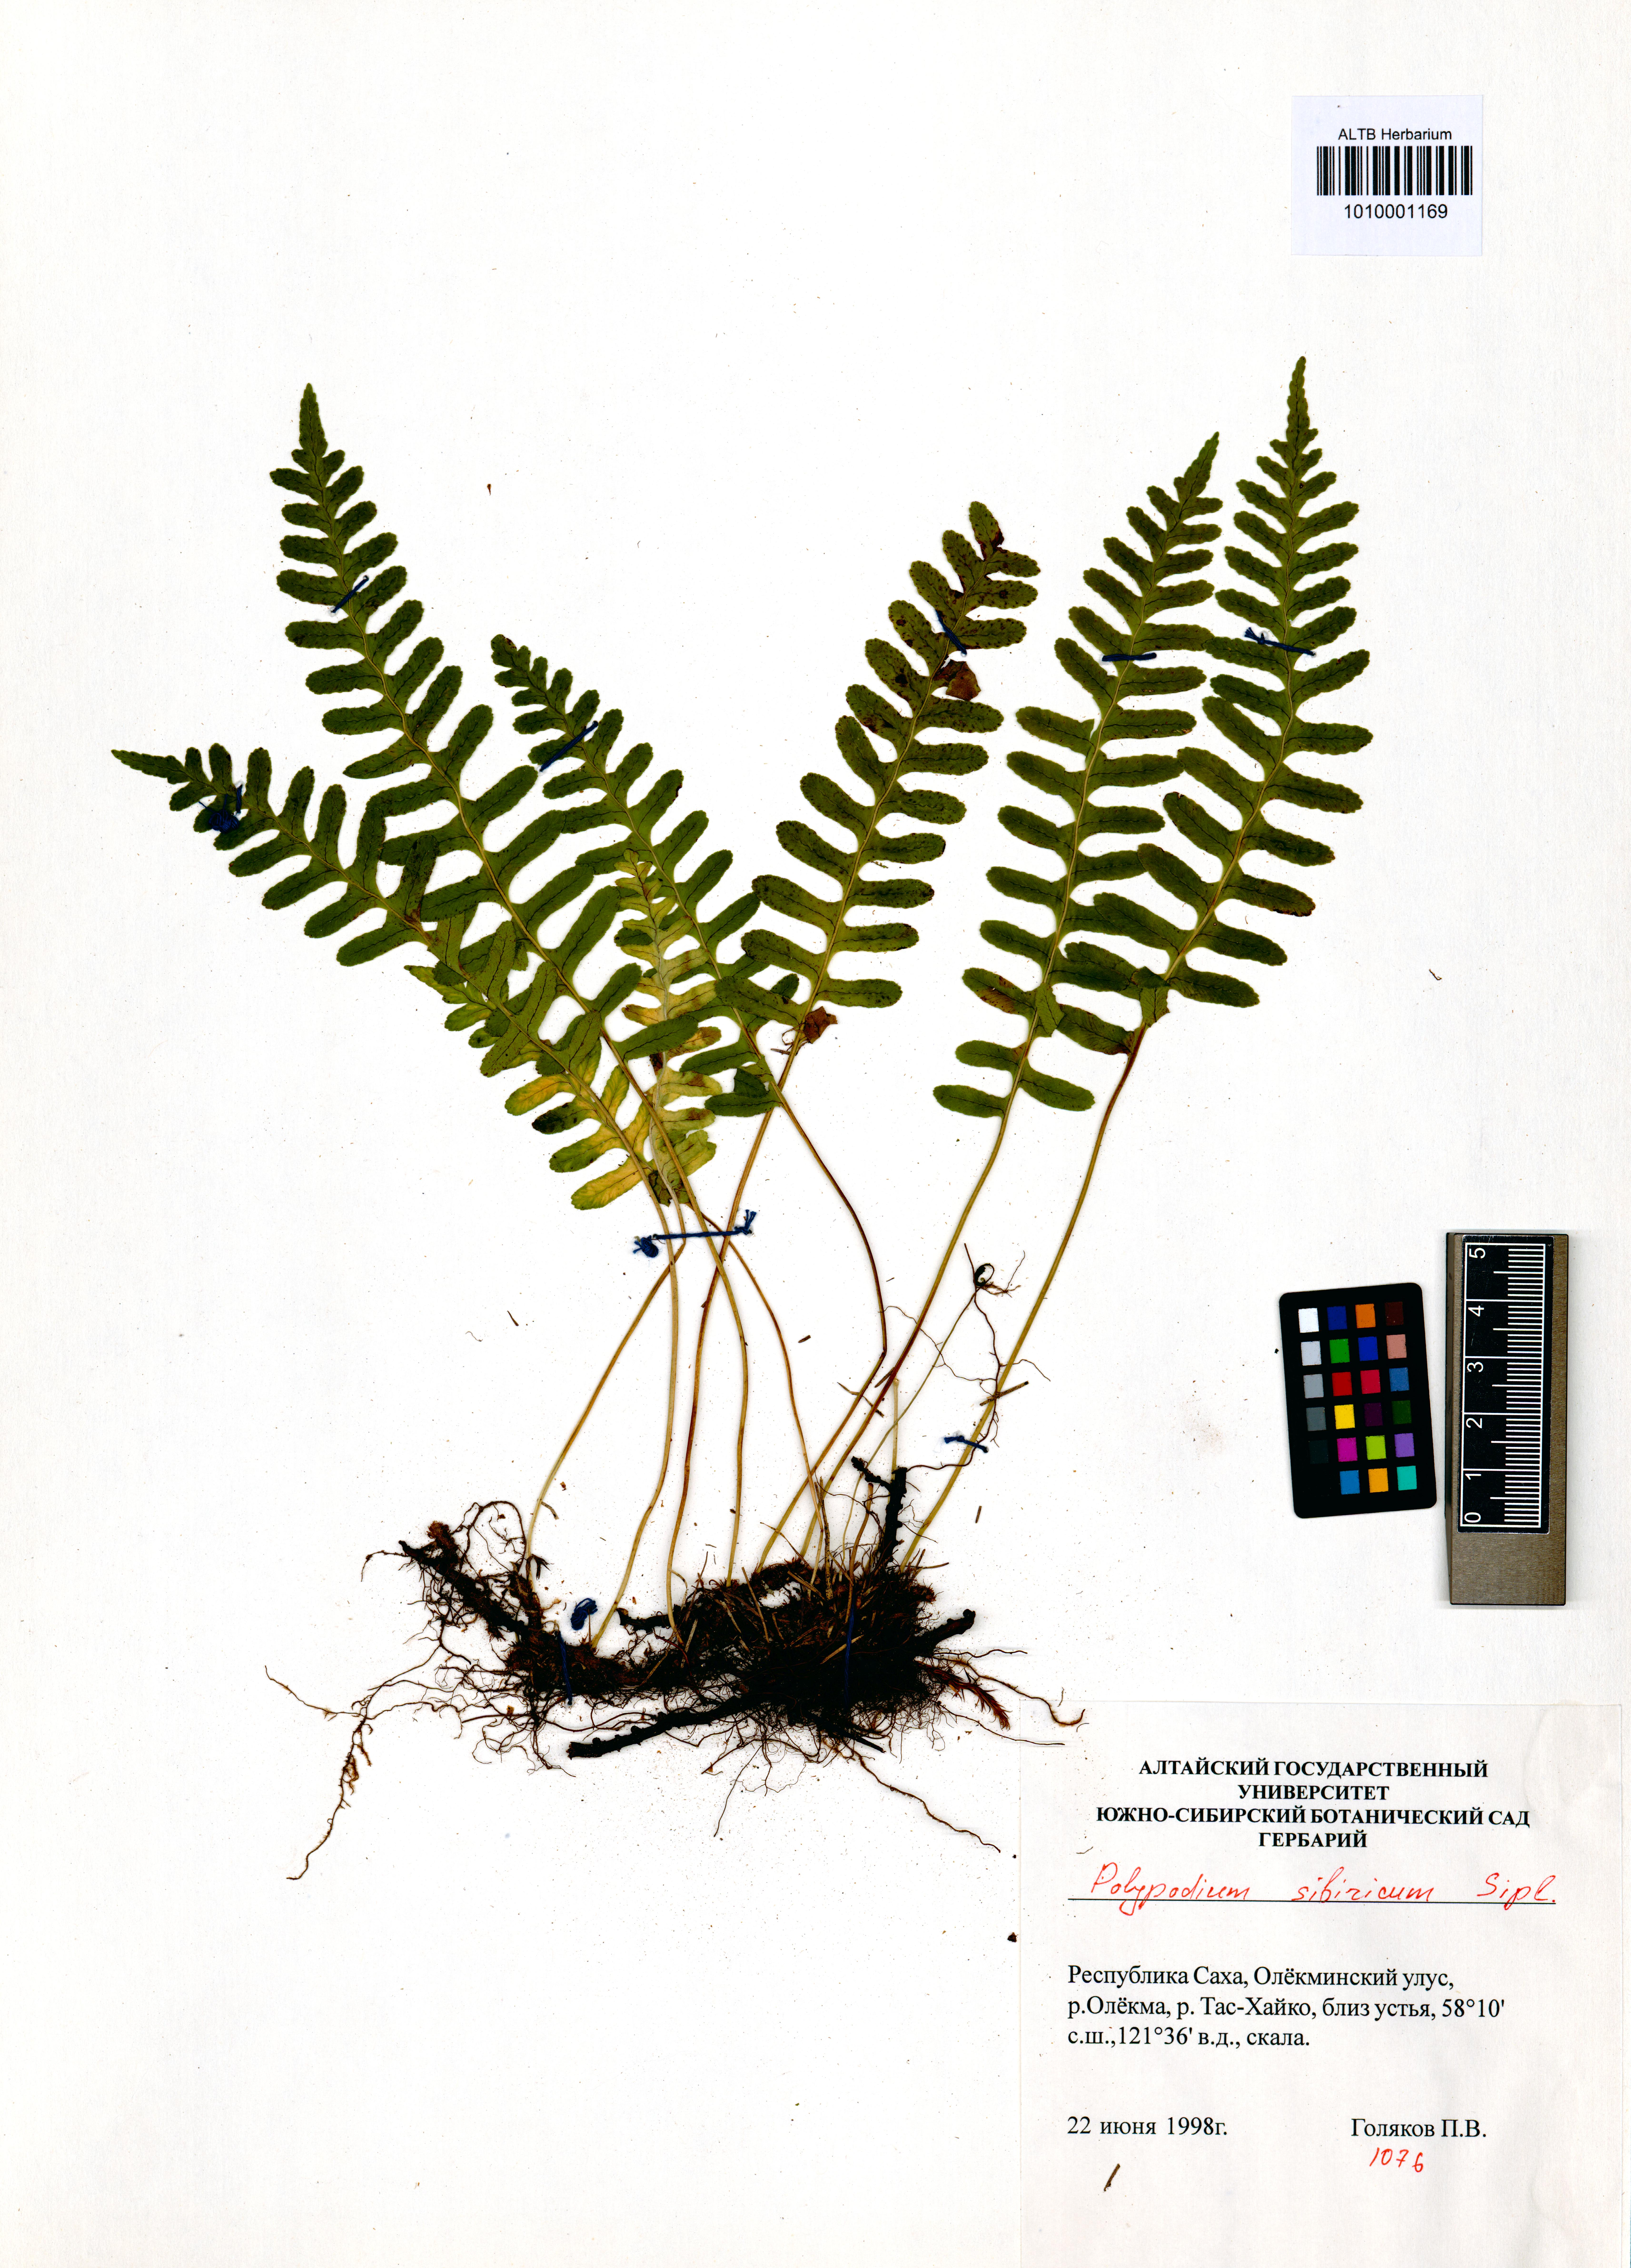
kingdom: Plantae
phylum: Tracheophyta
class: Polypodiopsida
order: Polypodiales
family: Polypodiaceae
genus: Polypodium
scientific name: Polypodium sibiricum
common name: Siberian polypody
